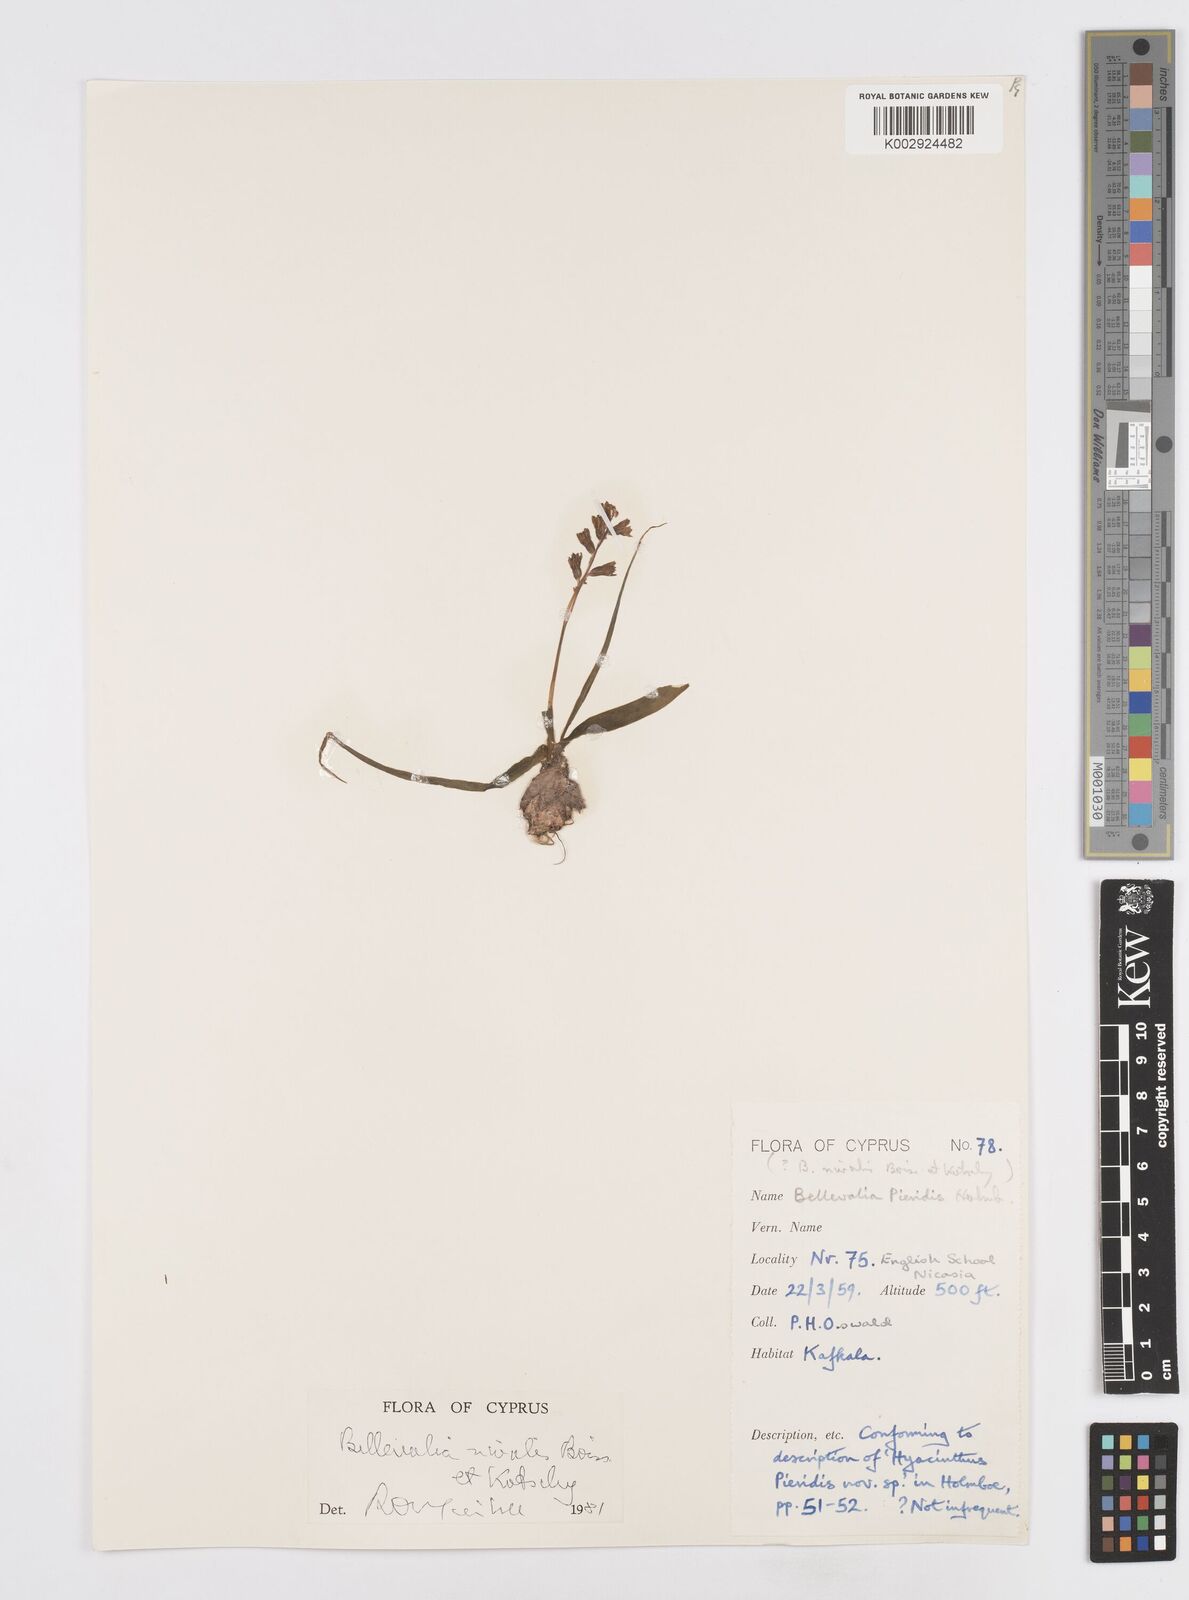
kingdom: Plantae
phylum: Tracheophyta
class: Liliopsida
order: Asparagales
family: Asparagaceae
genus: Bellevalia
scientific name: Bellevalia nivalis
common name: Snow bellevalia
